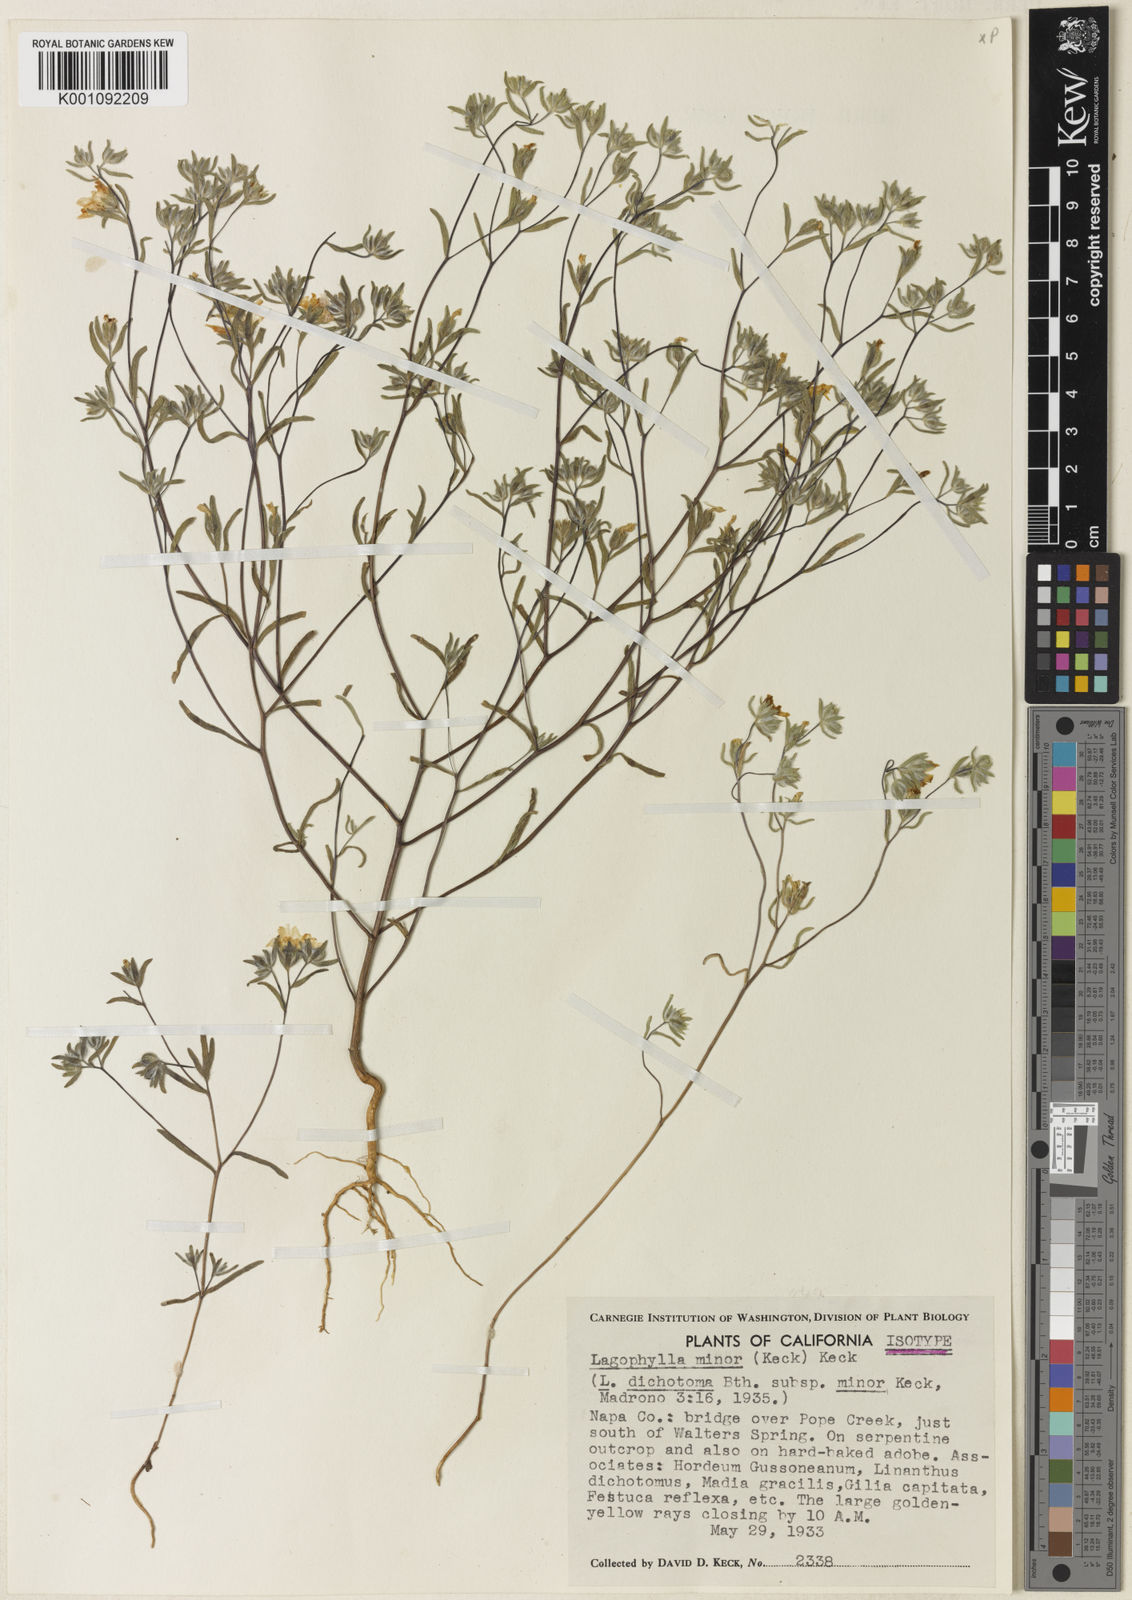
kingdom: Plantae
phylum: Tracheophyta
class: Magnoliopsida
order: Asterales
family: Asteraceae
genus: Lagophylla
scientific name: Lagophylla dichotoma
